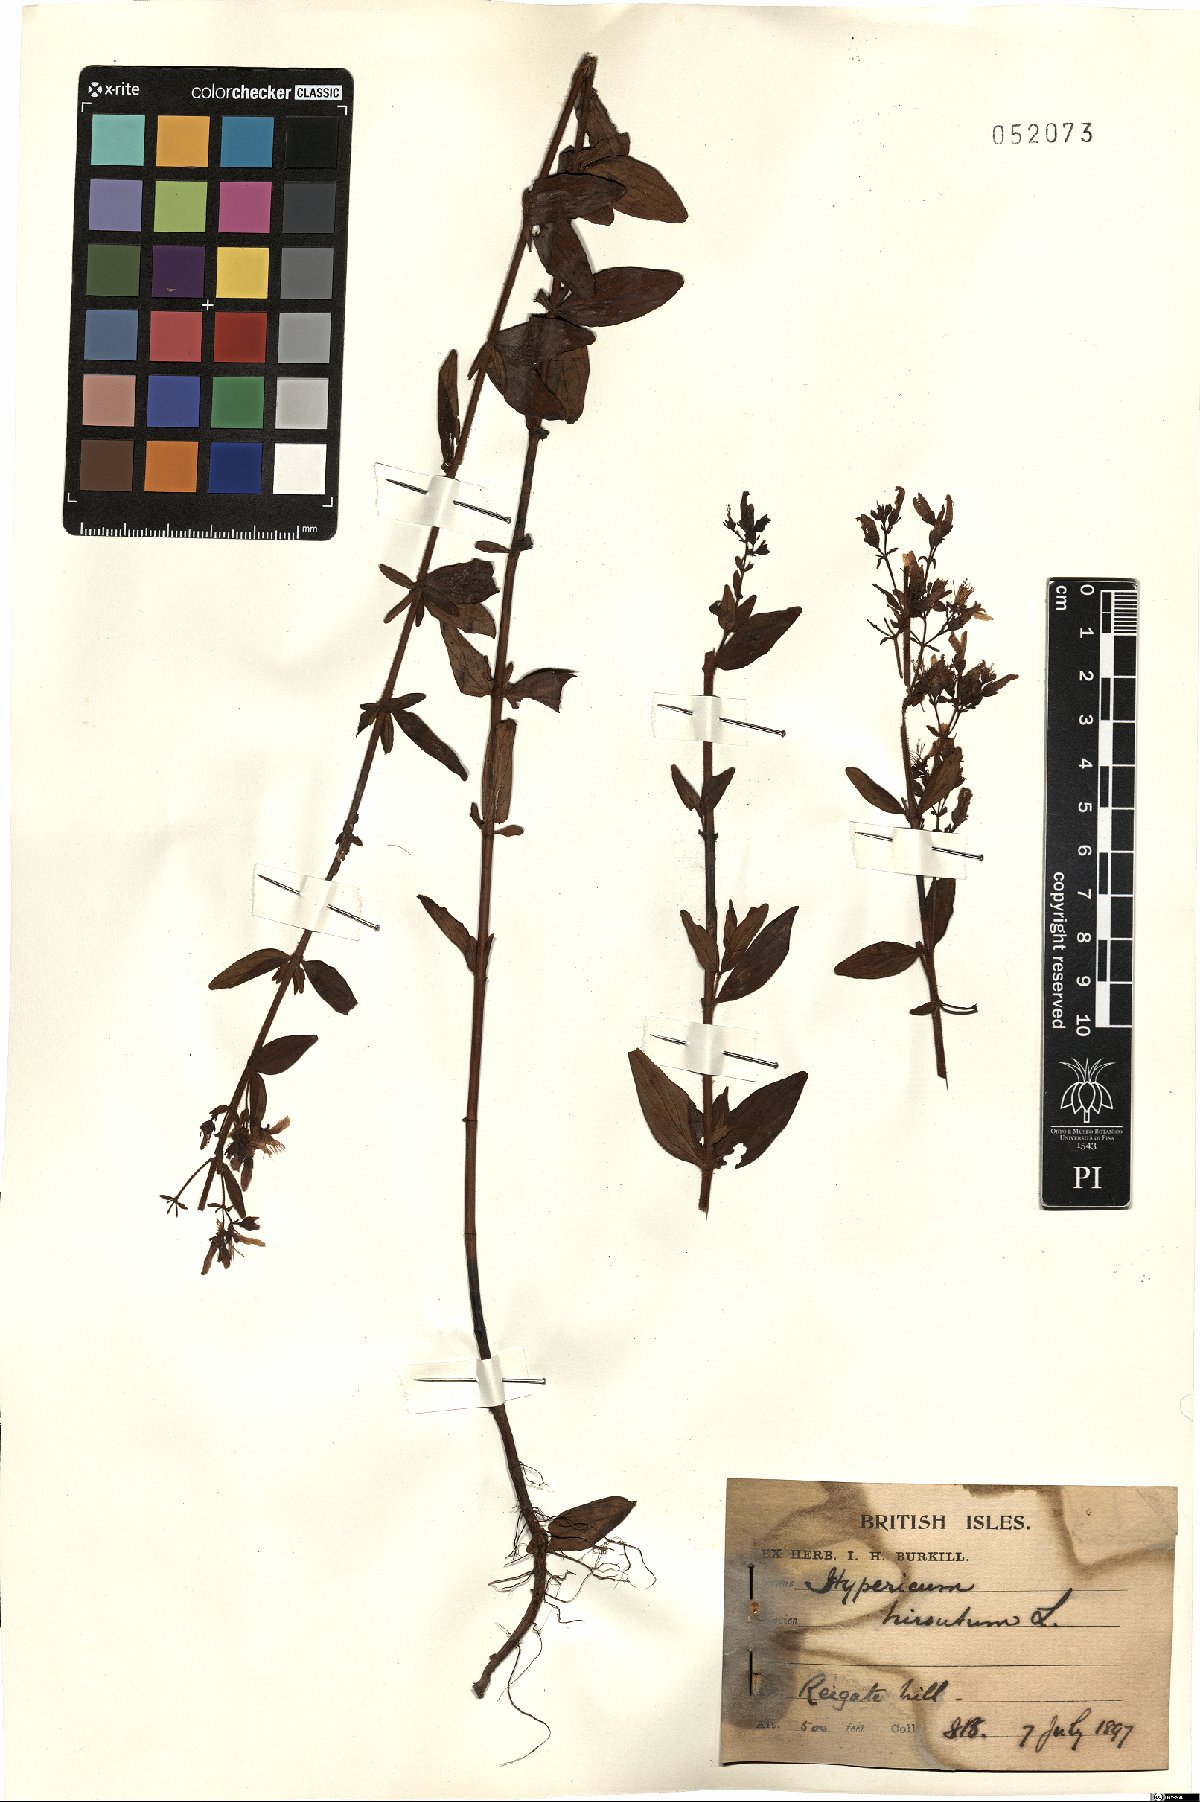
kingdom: Plantae
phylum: Tracheophyta
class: Magnoliopsida
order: Malpighiales
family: Hypericaceae
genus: Hypericum
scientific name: Hypericum hirsutum
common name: Hairy st. john's-wort
